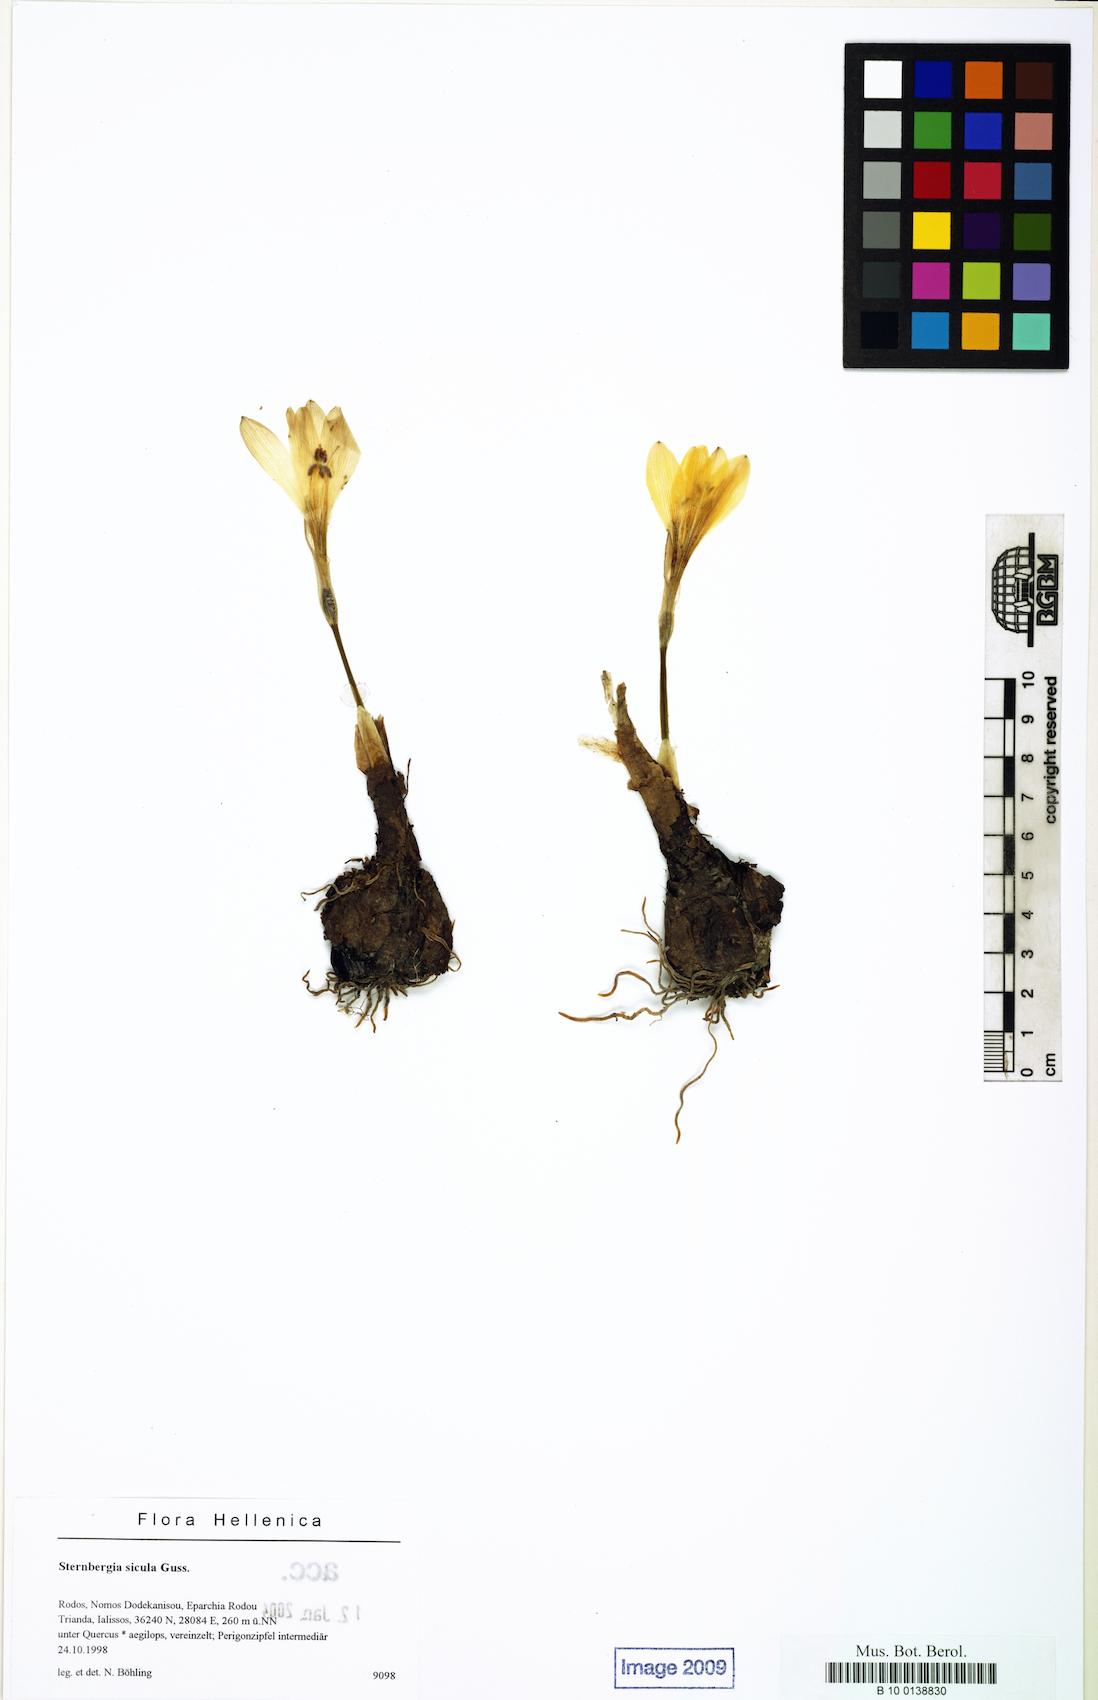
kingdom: Plantae
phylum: Tracheophyta
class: Liliopsida
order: Asparagales
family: Amaryllidaceae
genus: Sternbergia
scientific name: Sternbergia lutea
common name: Winter daffodil
